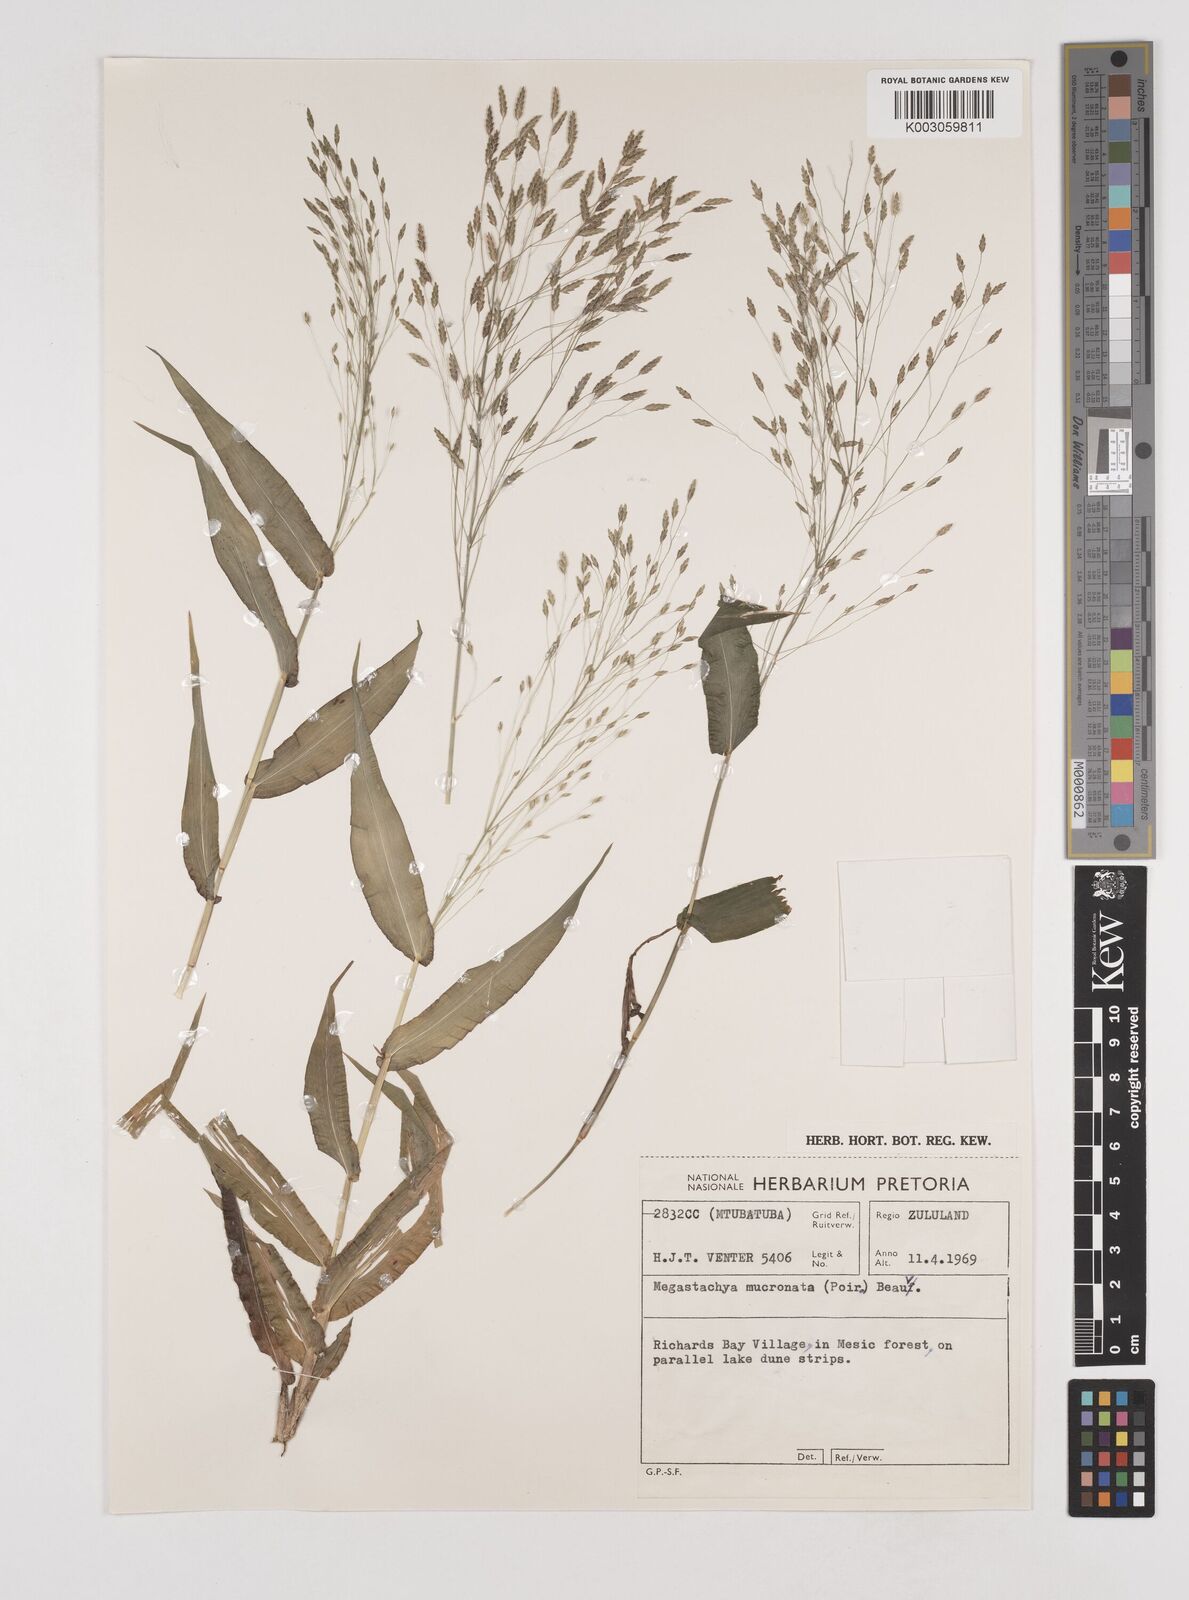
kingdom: Plantae
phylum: Tracheophyta
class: Liliopsida
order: Poales
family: Poaceae
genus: Megastachya
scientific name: Megastachya mucronata
